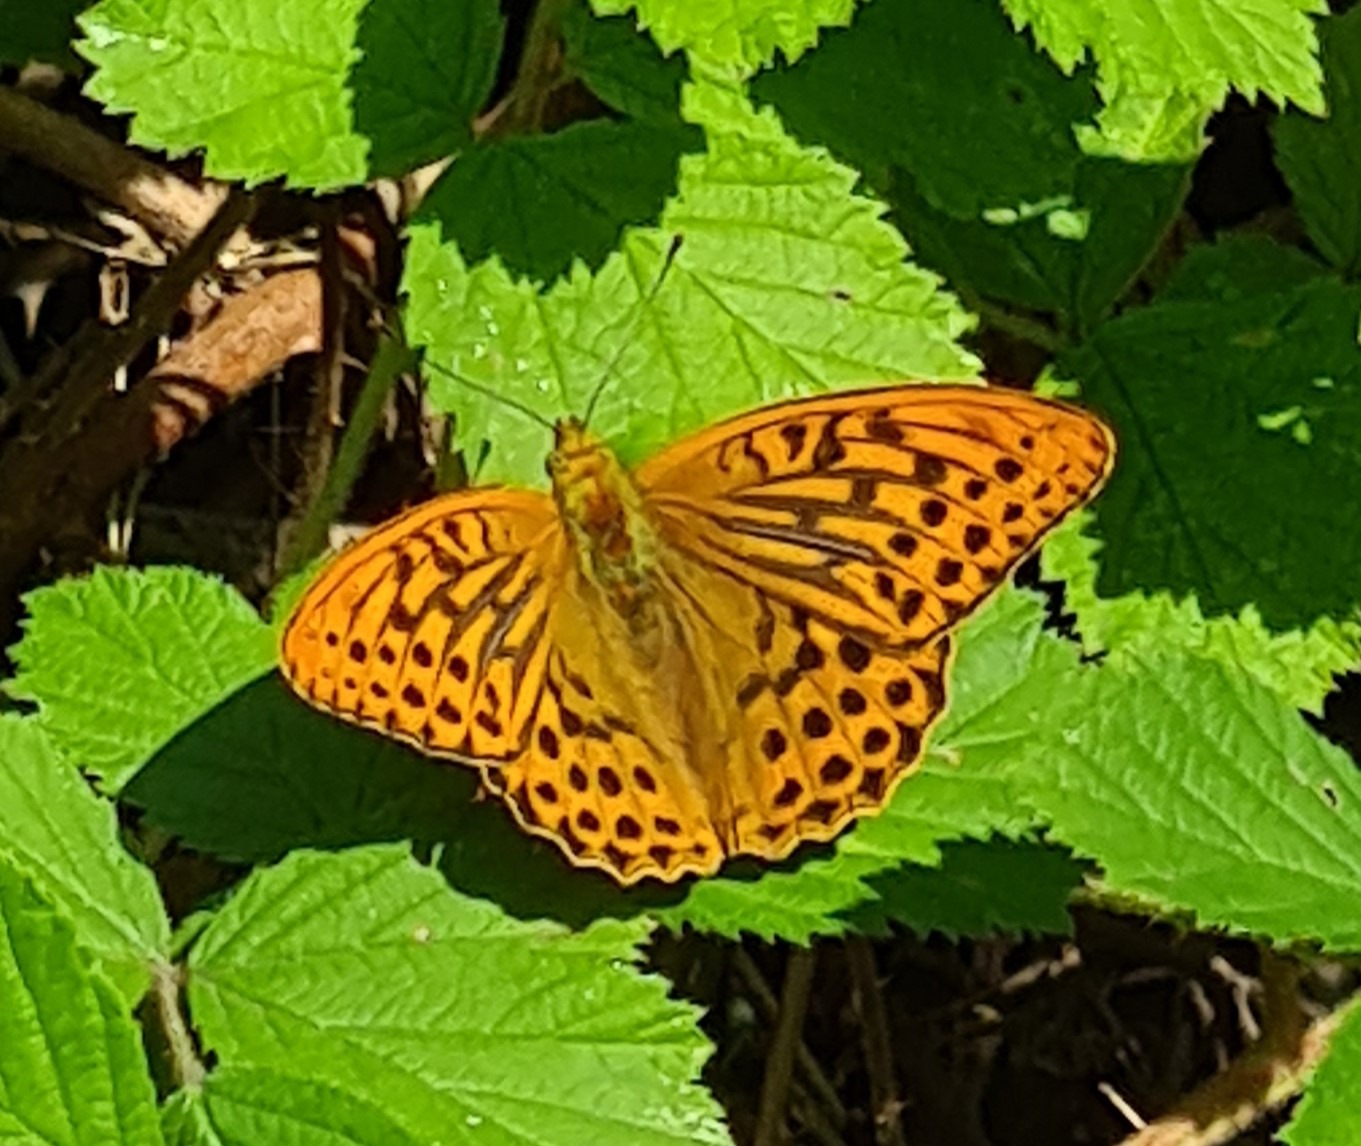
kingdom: Animalia
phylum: Arthropoda
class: Insecta
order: Lepidoptera
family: Nymphalidae
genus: Argynnis
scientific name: Argynnis paphia
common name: Kejserkåbe
